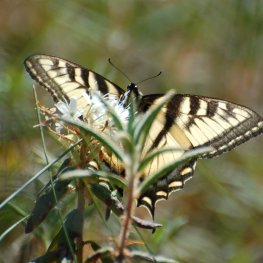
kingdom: Animalia
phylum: Arthropoda
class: Insecta
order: Lepidoptera
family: Papilionidae
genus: Pterourus
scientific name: Pterourus canadensis
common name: Canadian Tiger Swallowtail
